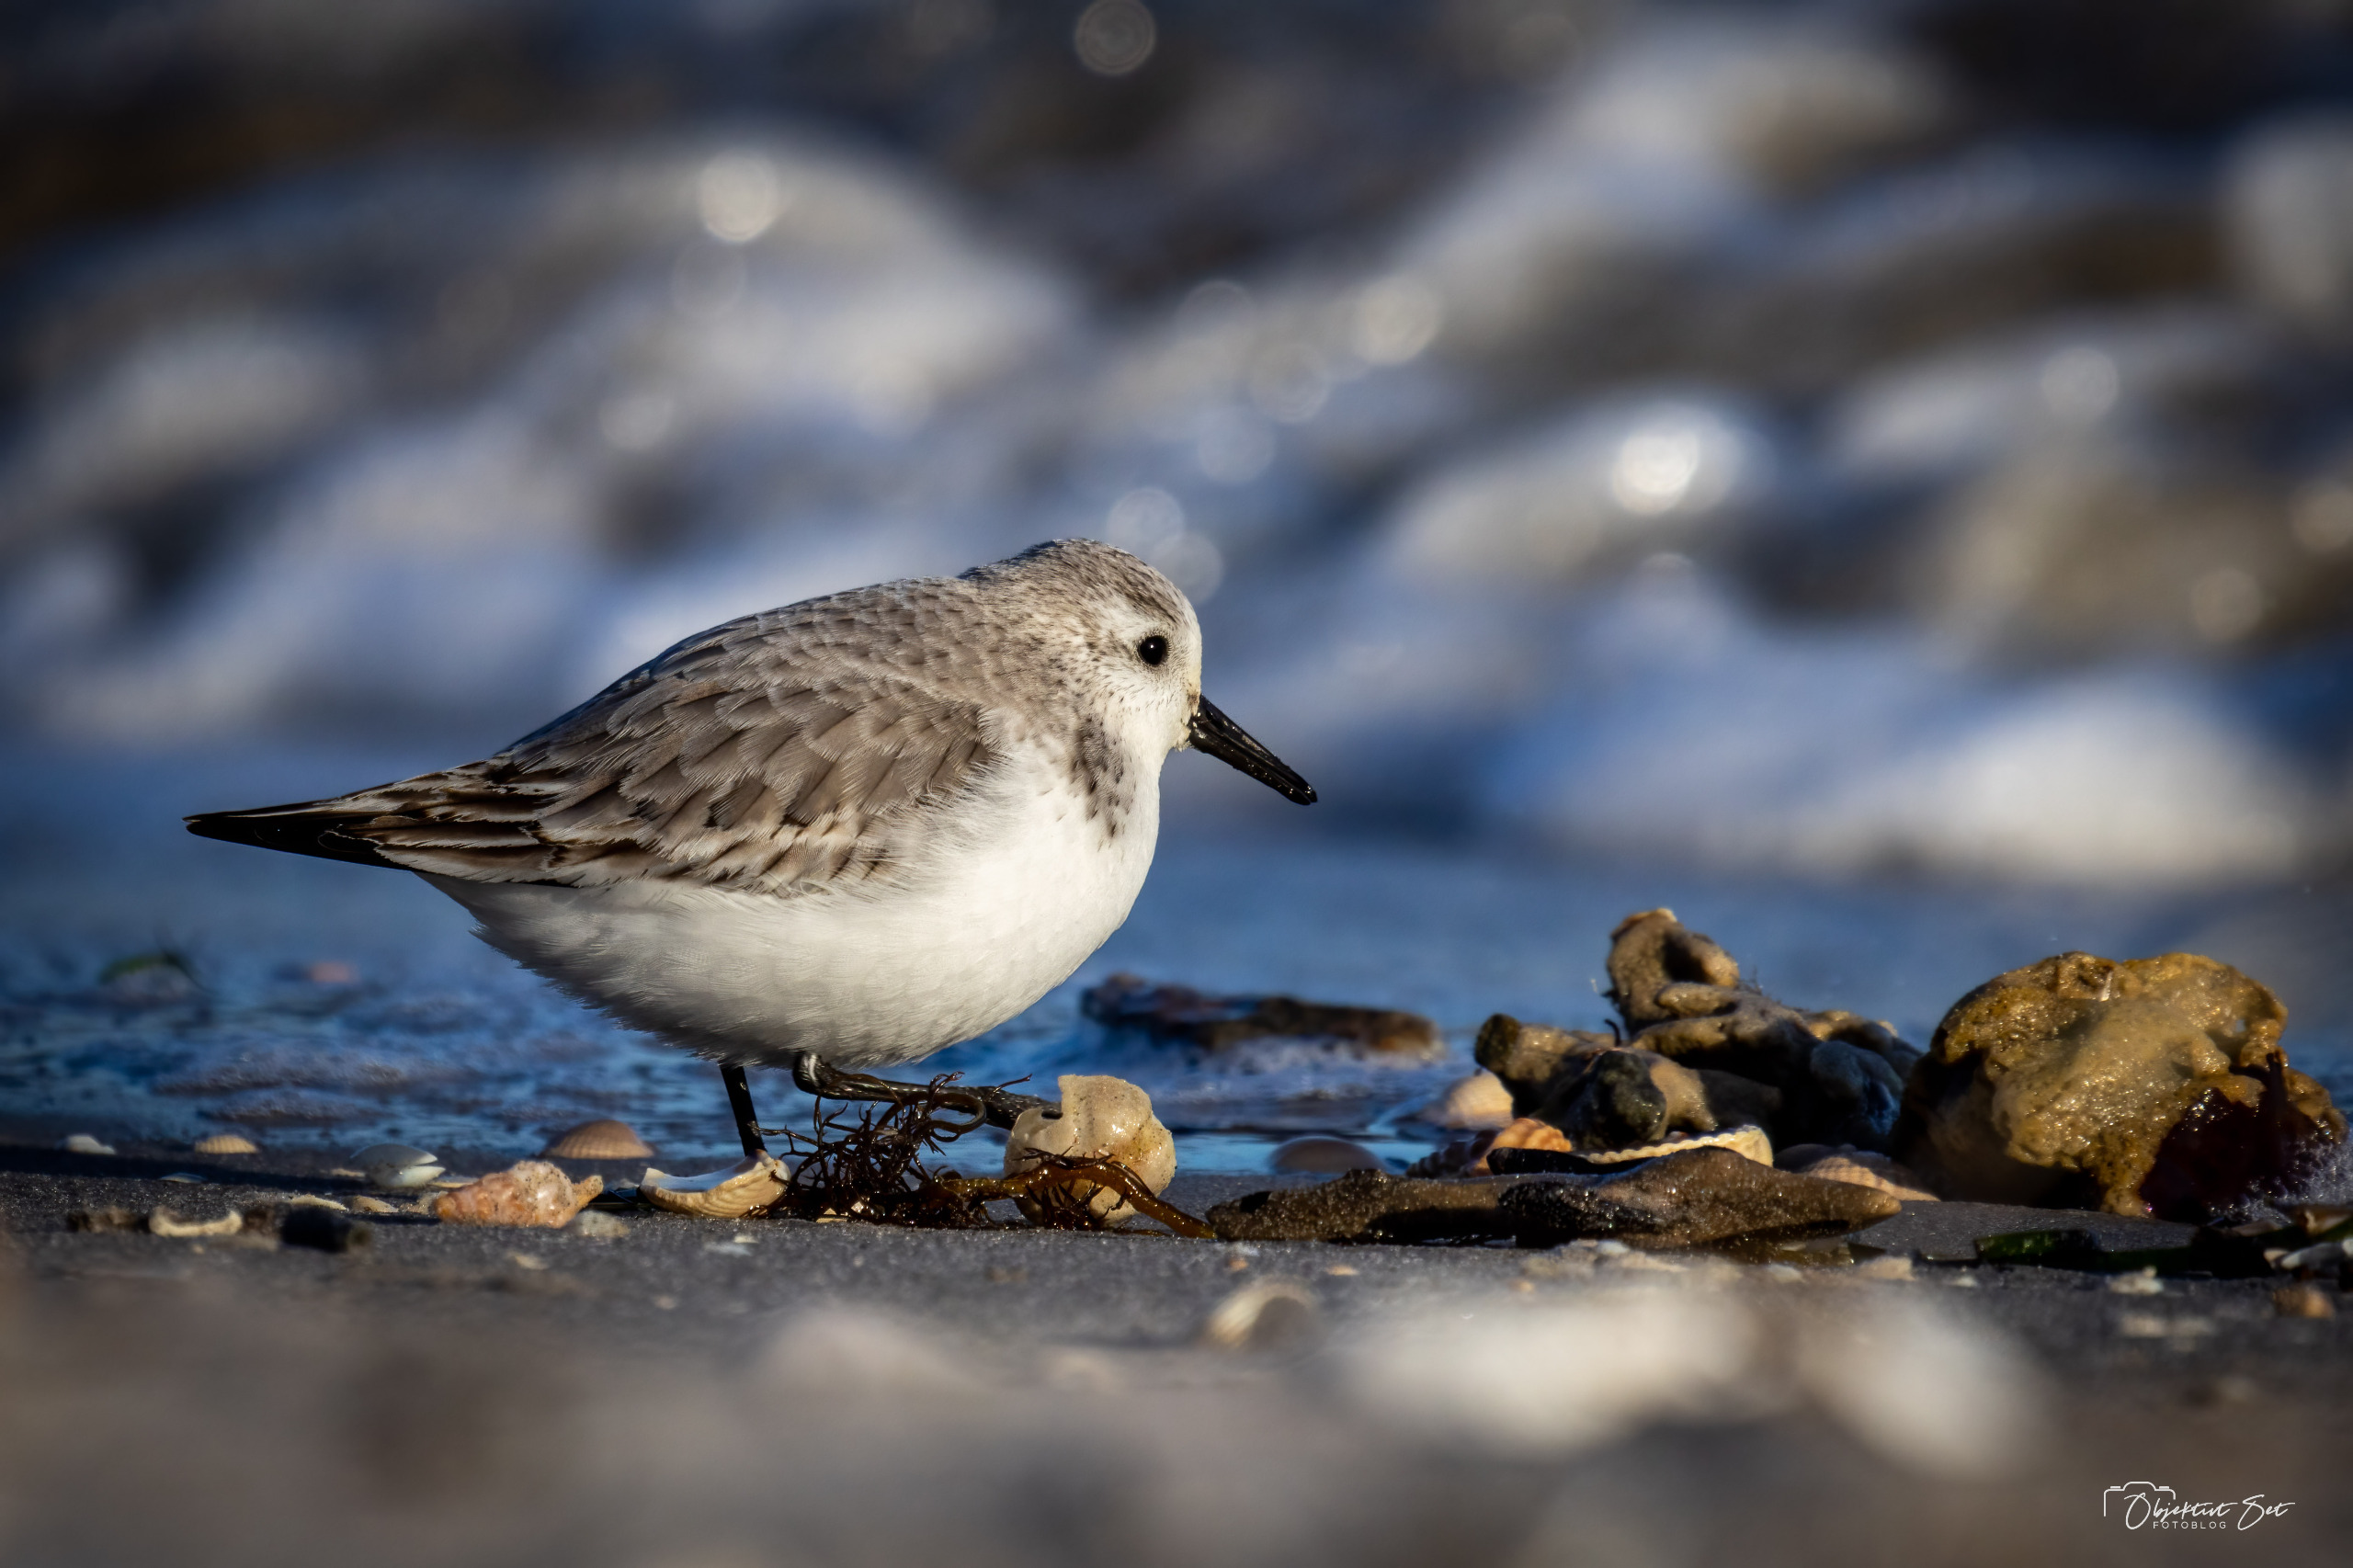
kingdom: Animalia
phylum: Chordata
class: Aves
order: Charadriiformes
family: Scolopacidae
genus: Calidris
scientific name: Calidris alba
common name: Sandløber
